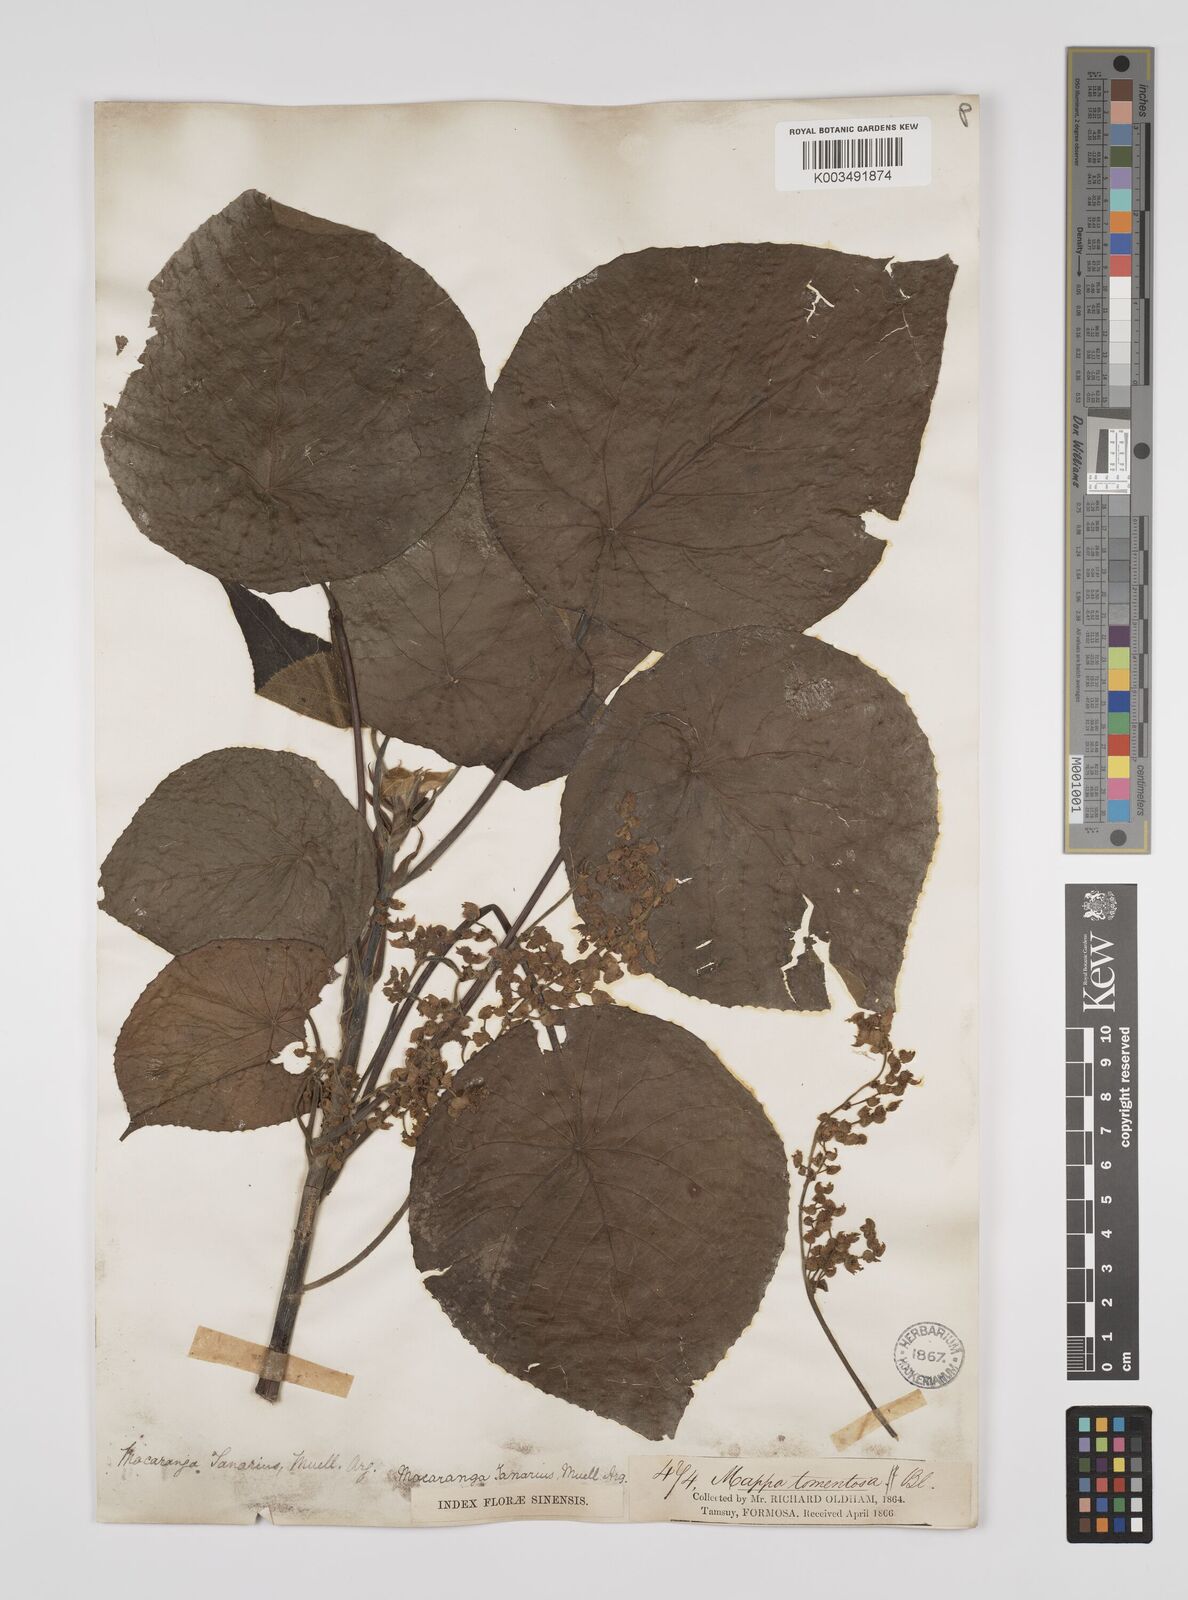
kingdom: Plantae
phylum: Tracheophyta
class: Magnoliopsida
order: Malpighiales
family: Euphorbiaceae
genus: Macaranga
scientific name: Macaranga tanarius
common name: Parasol leaf tree
